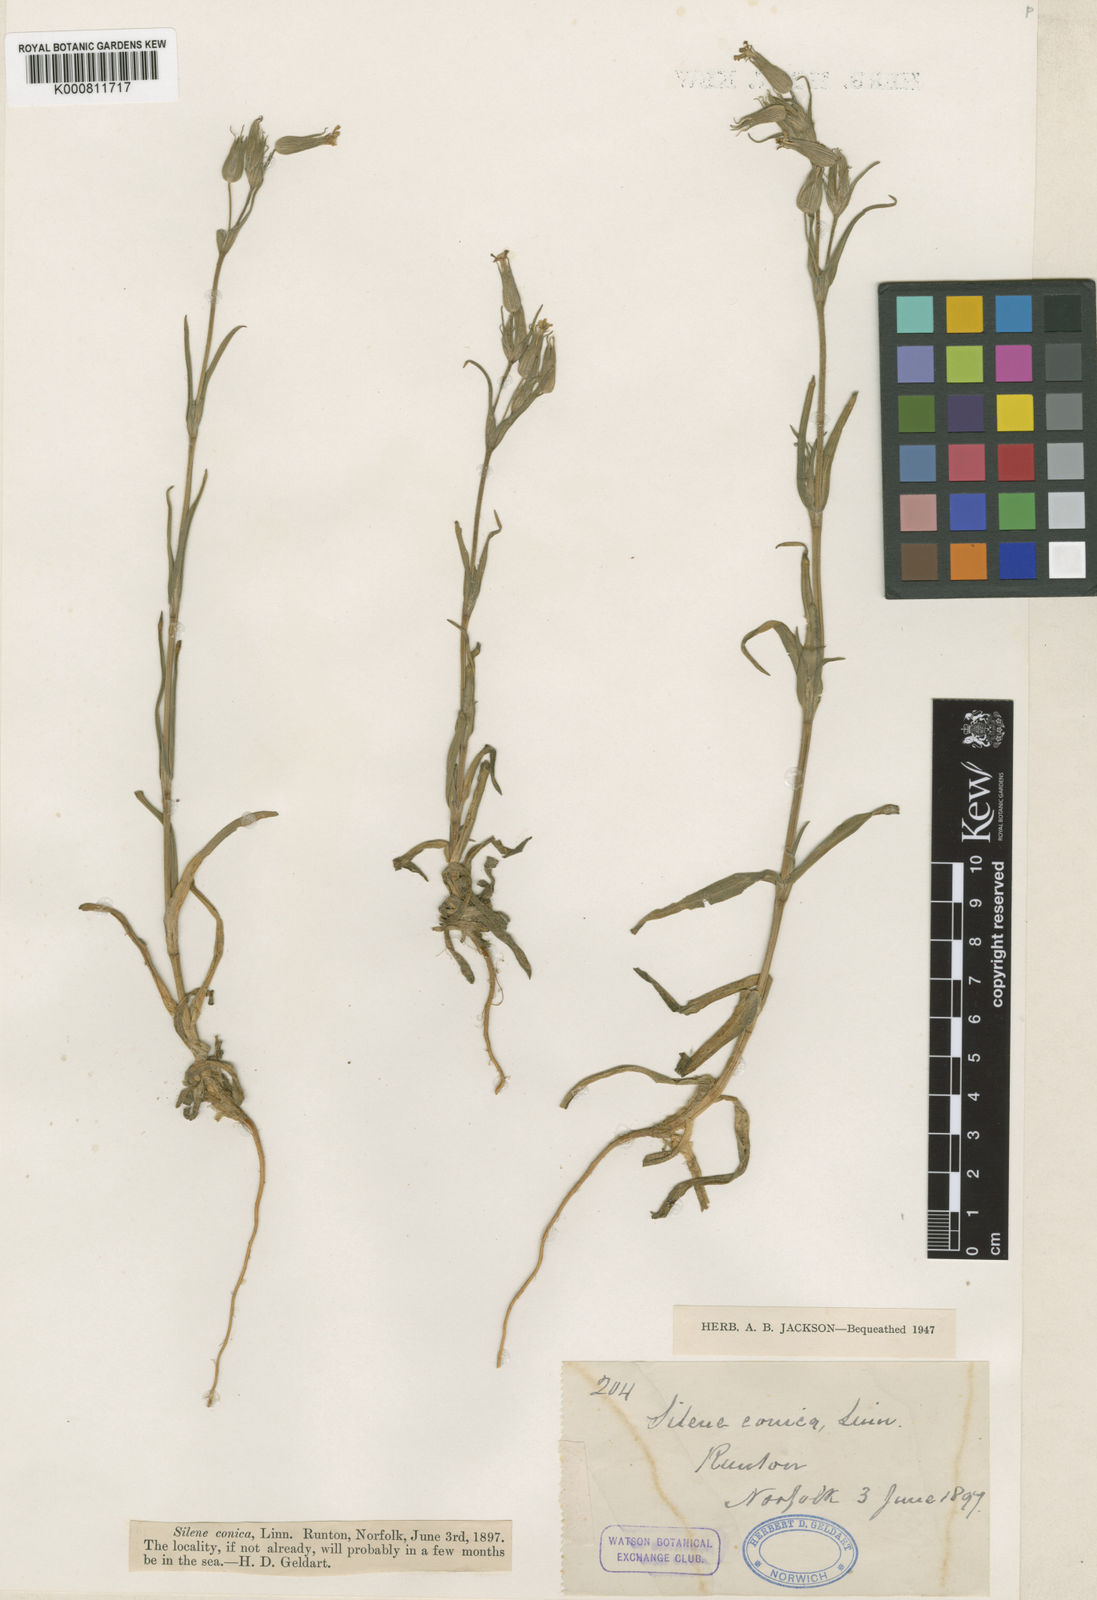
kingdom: Plantae
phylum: Tracheophyta
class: Magnoliopsida
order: Caryophyllales
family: Caryophyllaceae
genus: Silene
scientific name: Silene conica
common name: Sand catchfly
